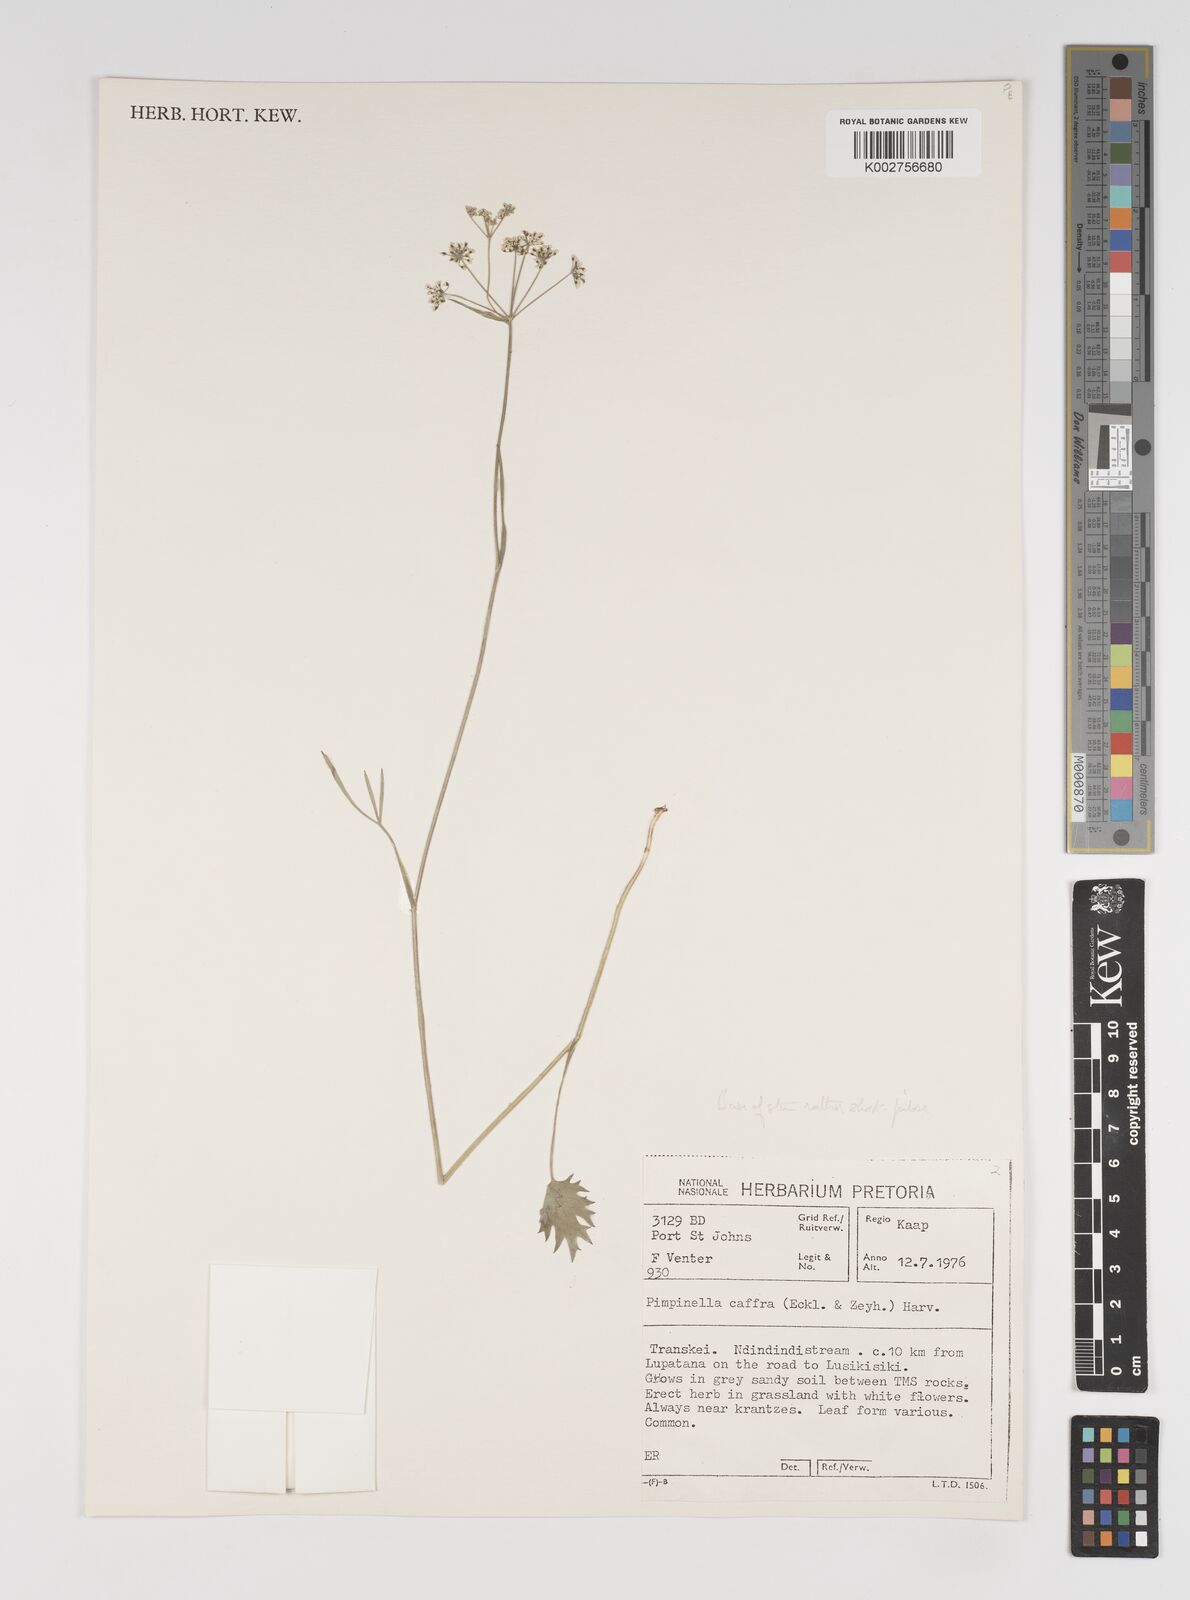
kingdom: Plantae
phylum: Tracheophyta
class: Magnoliopsida
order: Apiales
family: Apiaceae
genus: Pimpinella
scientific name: Pimpinella
